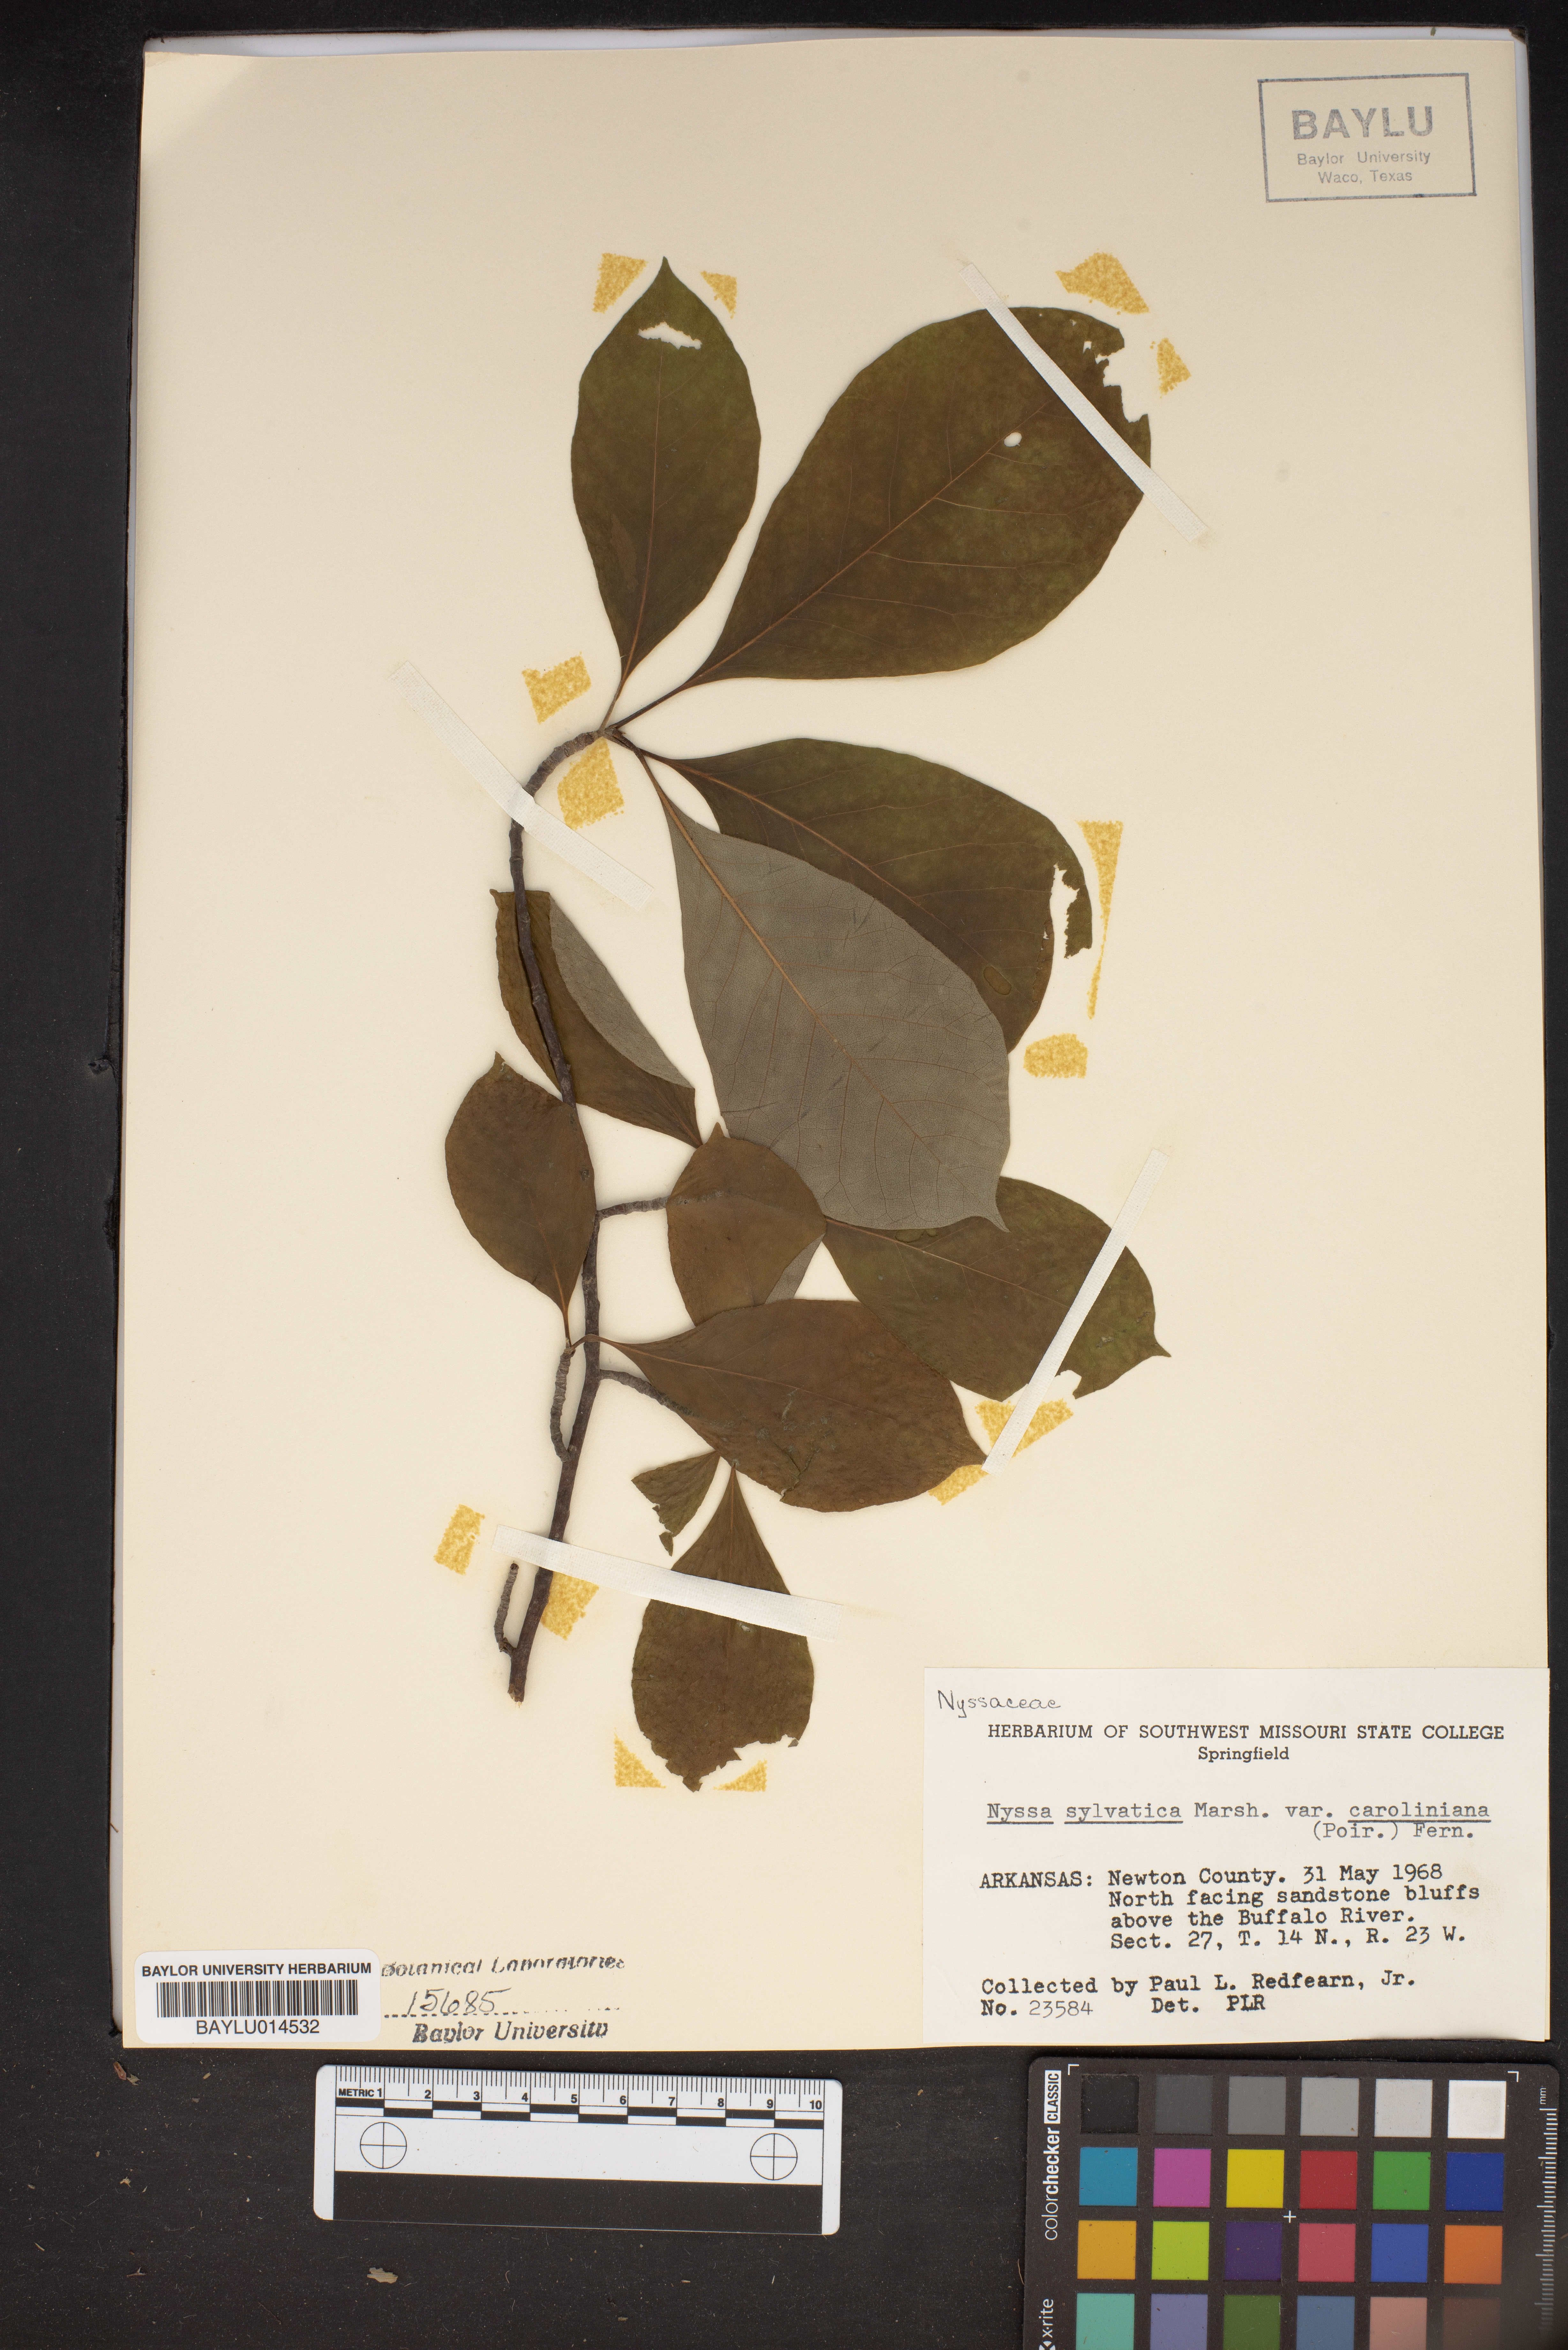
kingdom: Plantae
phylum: Tracheophyta
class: Magnoliopsida
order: Cornales
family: Nyssaceae
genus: Nyssa
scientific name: Nyssa sylvatica
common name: Black tupelo
